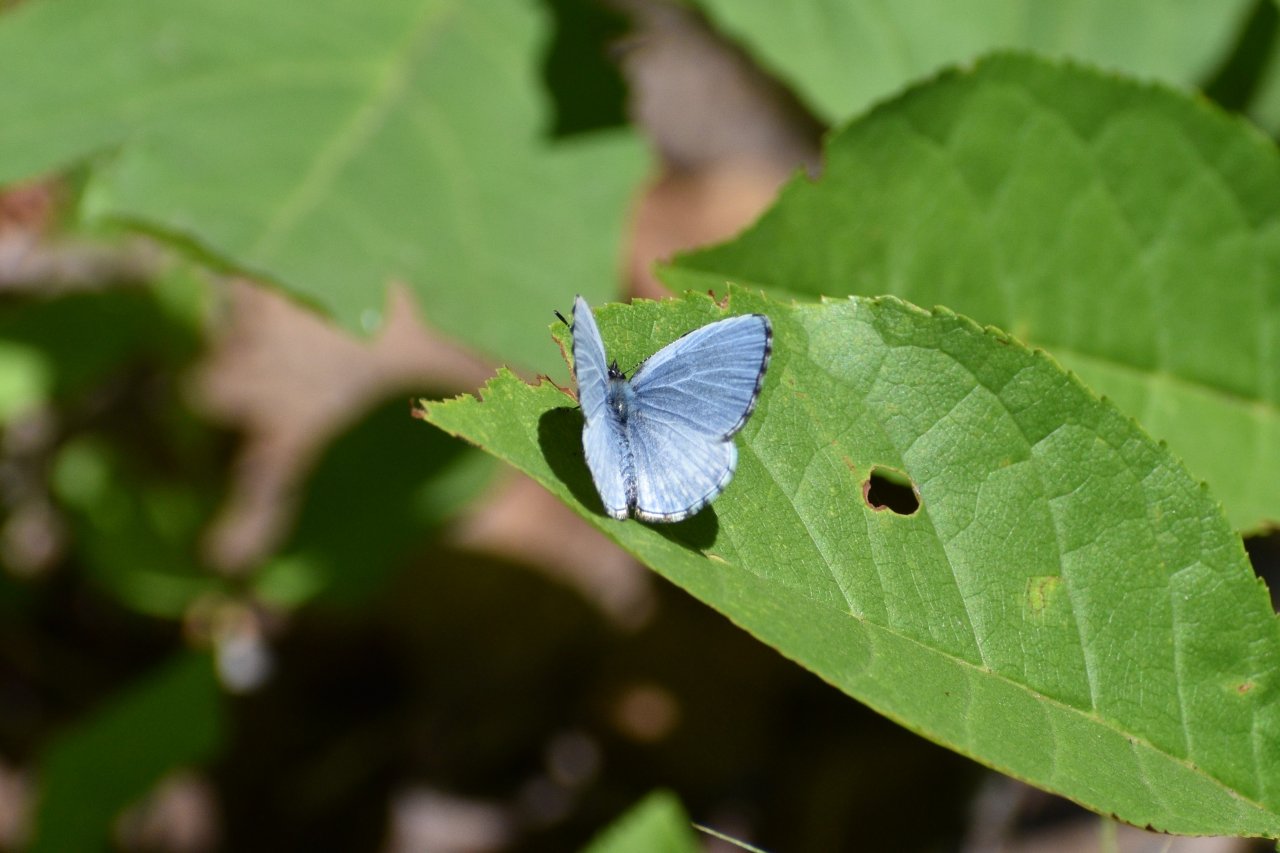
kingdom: Animalia
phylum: Arthropoda
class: Insecta
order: Lepidoptera
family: Lycaenidae
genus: Celastrina
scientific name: Celastrina lucia
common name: Northern Spring Azure
